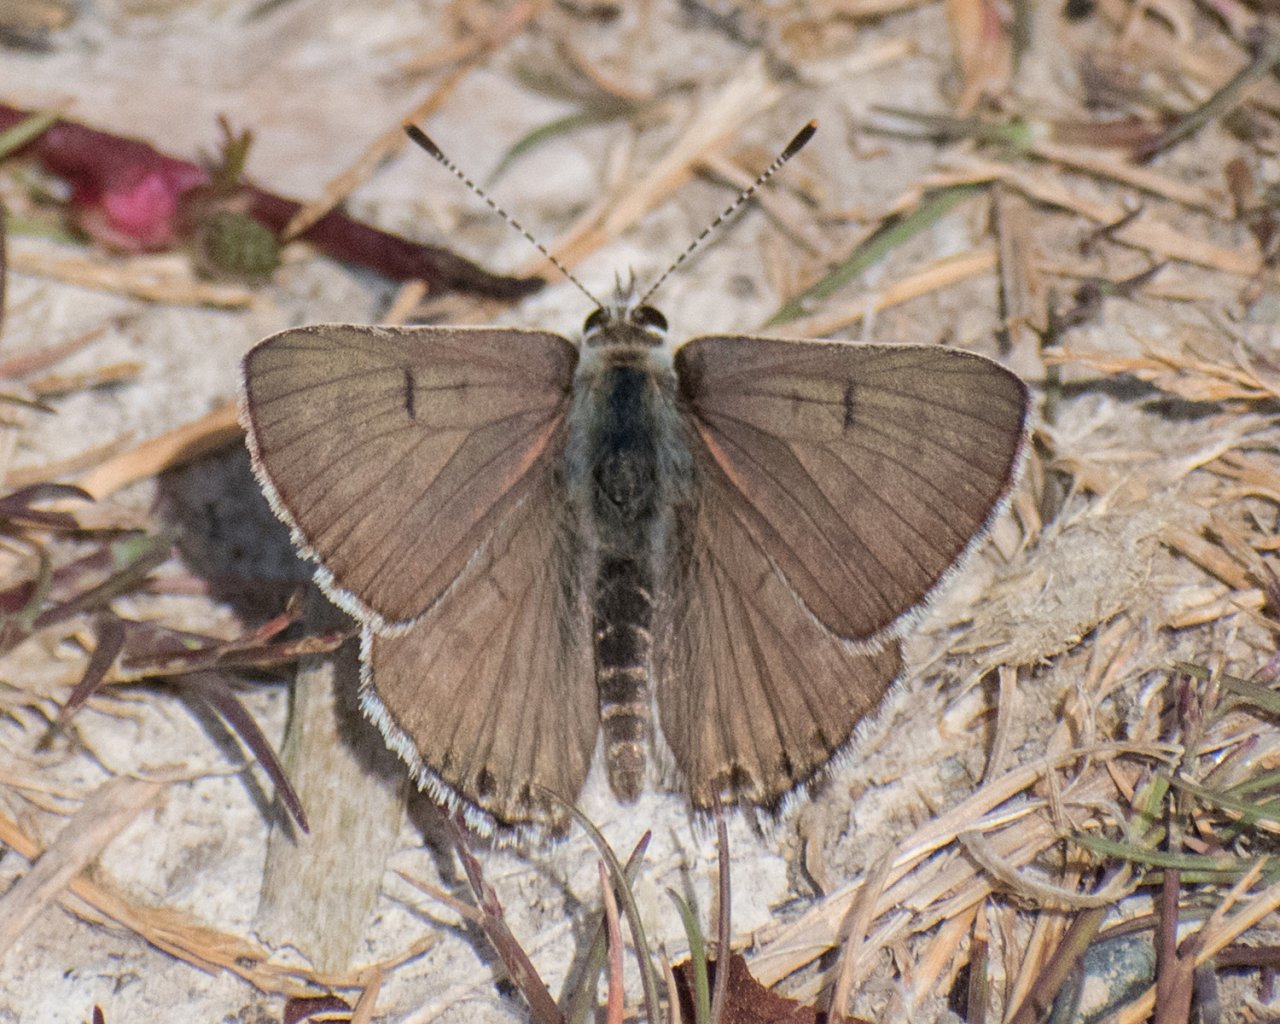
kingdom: Animalia
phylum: Arthropoda
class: Insecta
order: Lepidoptera
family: Lycaenidae
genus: Nacaduba
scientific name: Nacaduba dyopa
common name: Gray Copper
